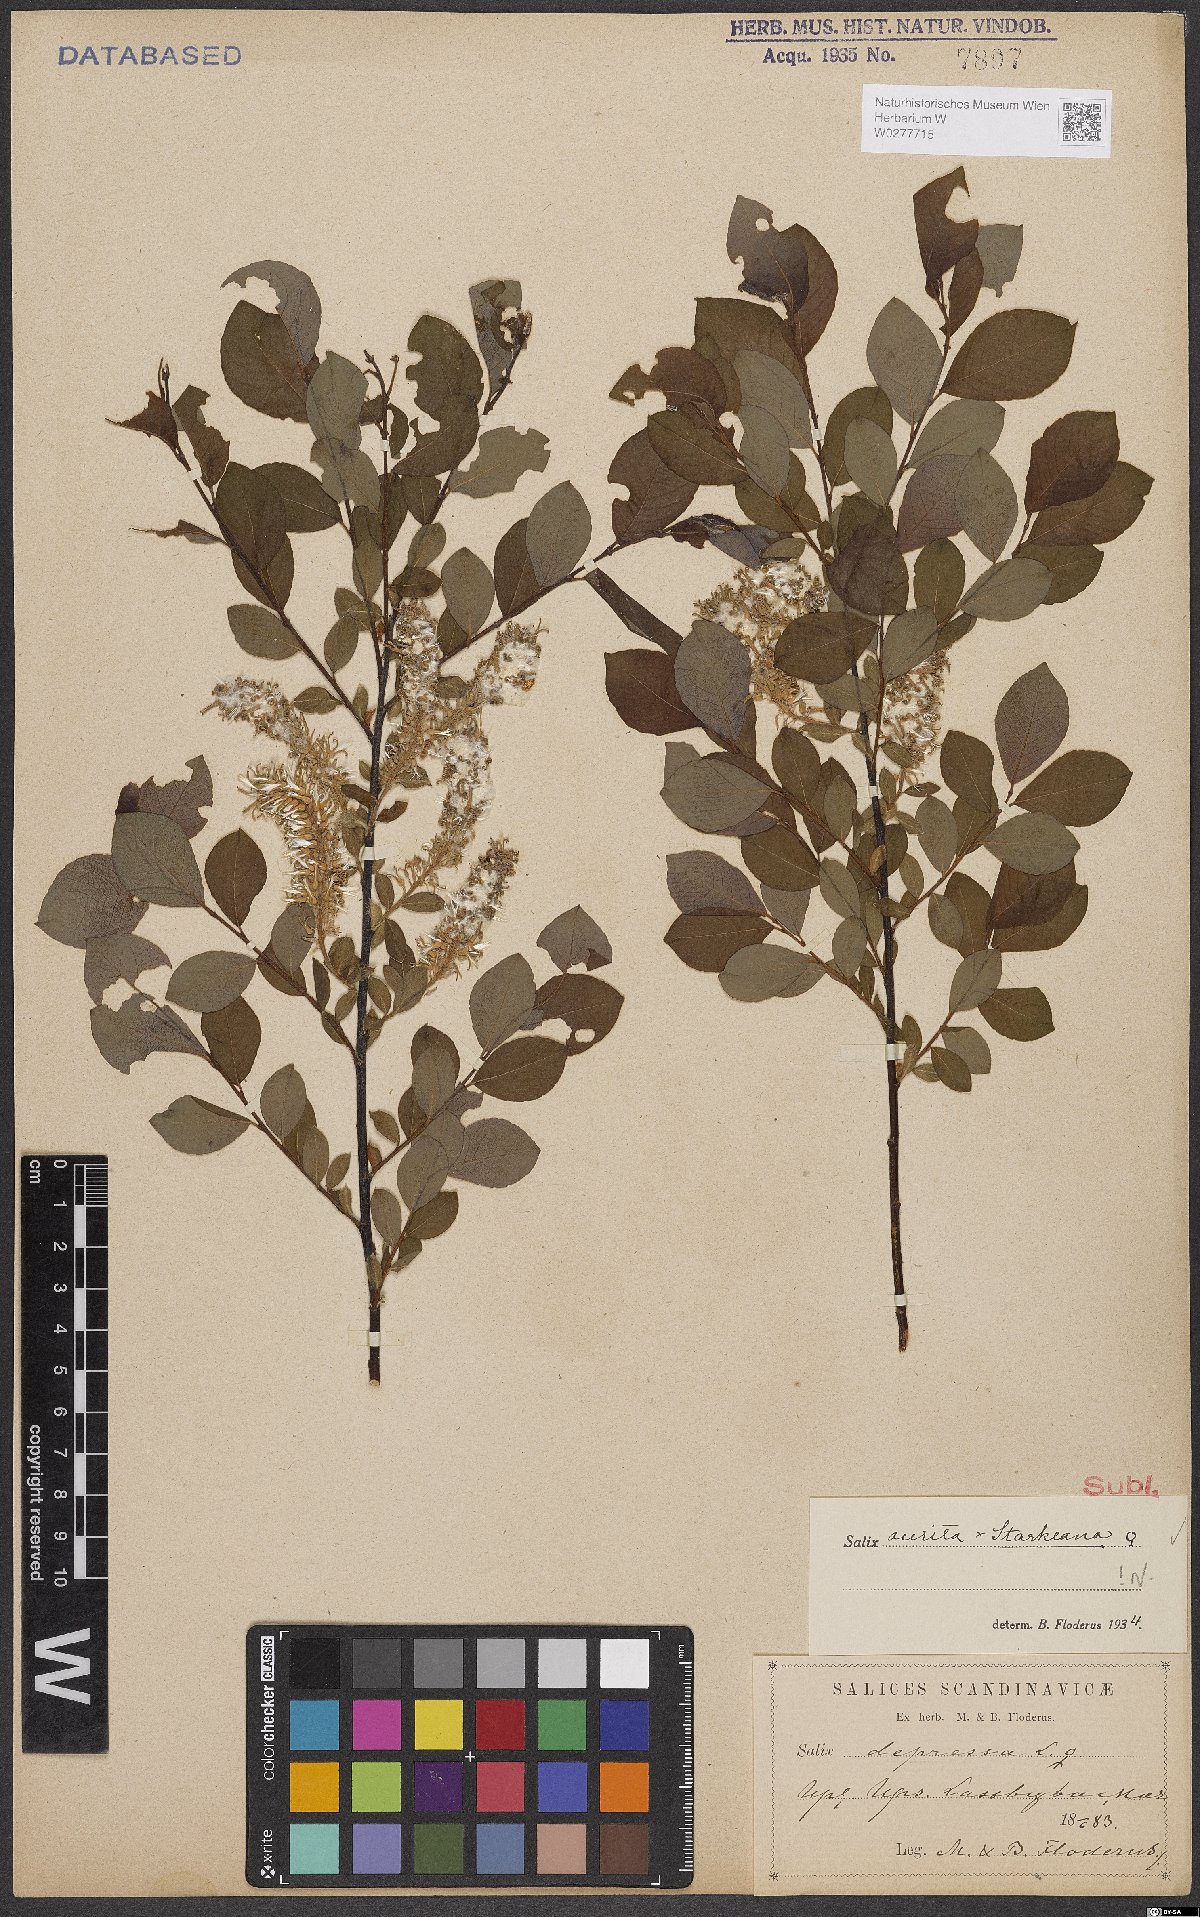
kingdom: Plantae
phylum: Tracheophyta
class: Magnoliopsida
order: Malpighiales
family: Salicaceae
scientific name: Salicaceae
